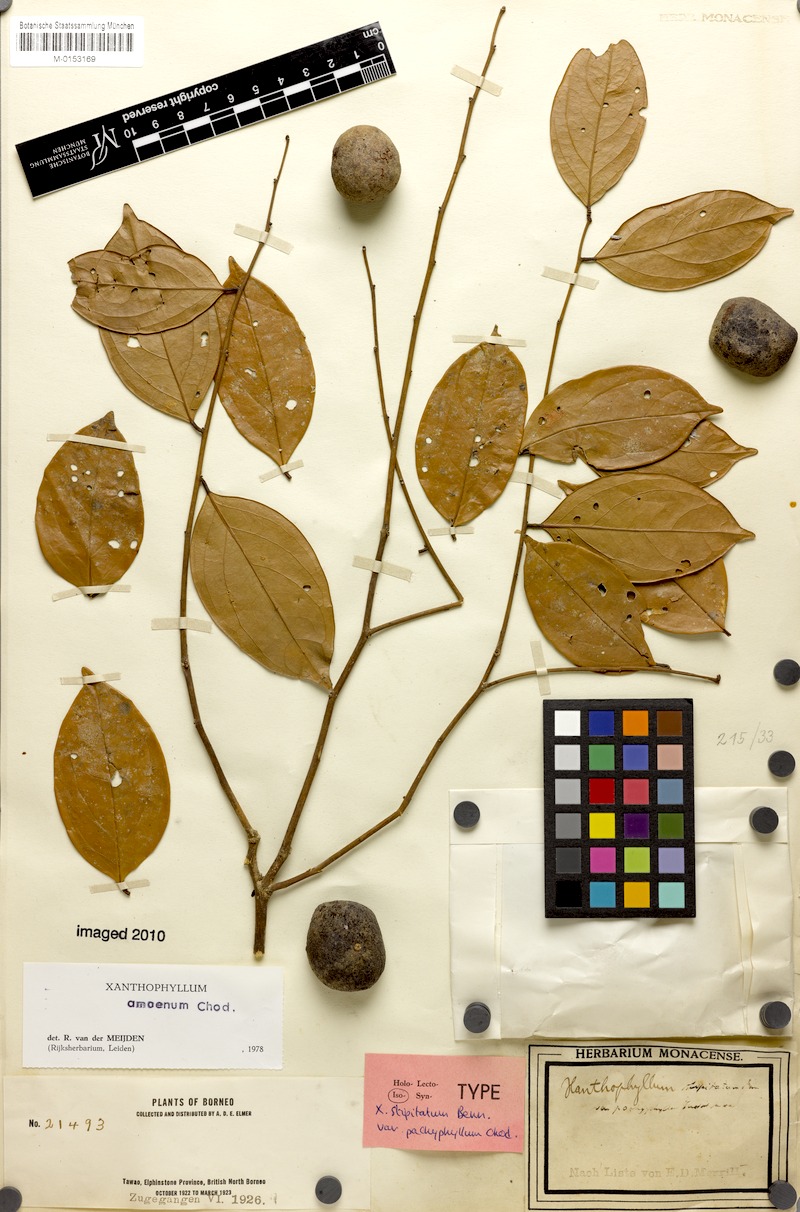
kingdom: Plantae
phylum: Tracheophyta
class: Magnoliopsida
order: Fabales
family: Polygalaceae
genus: Xanthophyllum
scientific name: Xanthophyllum stipitatum
